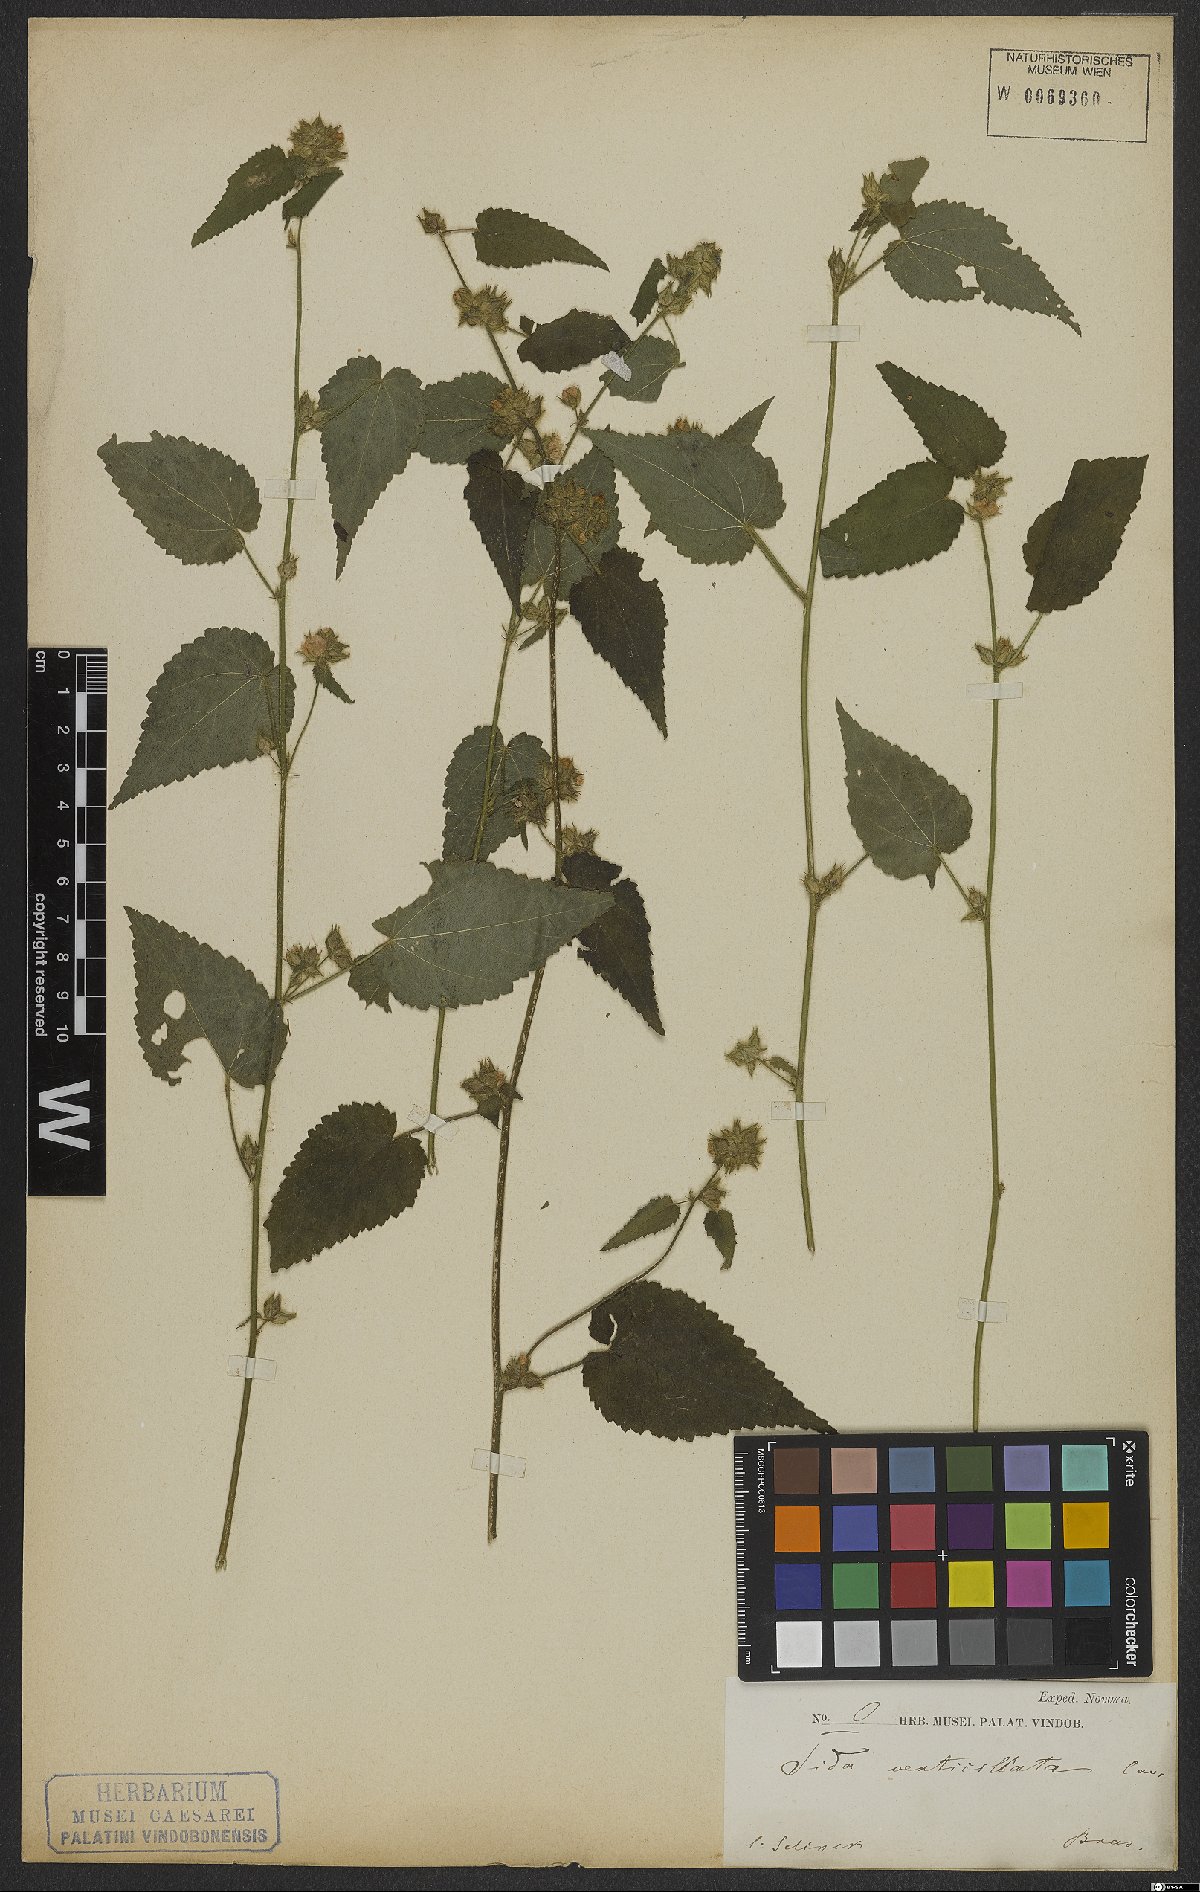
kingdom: Plantae
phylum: Tracheophyta
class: Magnoliopsida
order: Malvales
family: Malvaceae
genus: Sida
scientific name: Sida urens
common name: Tropical fanpetals
